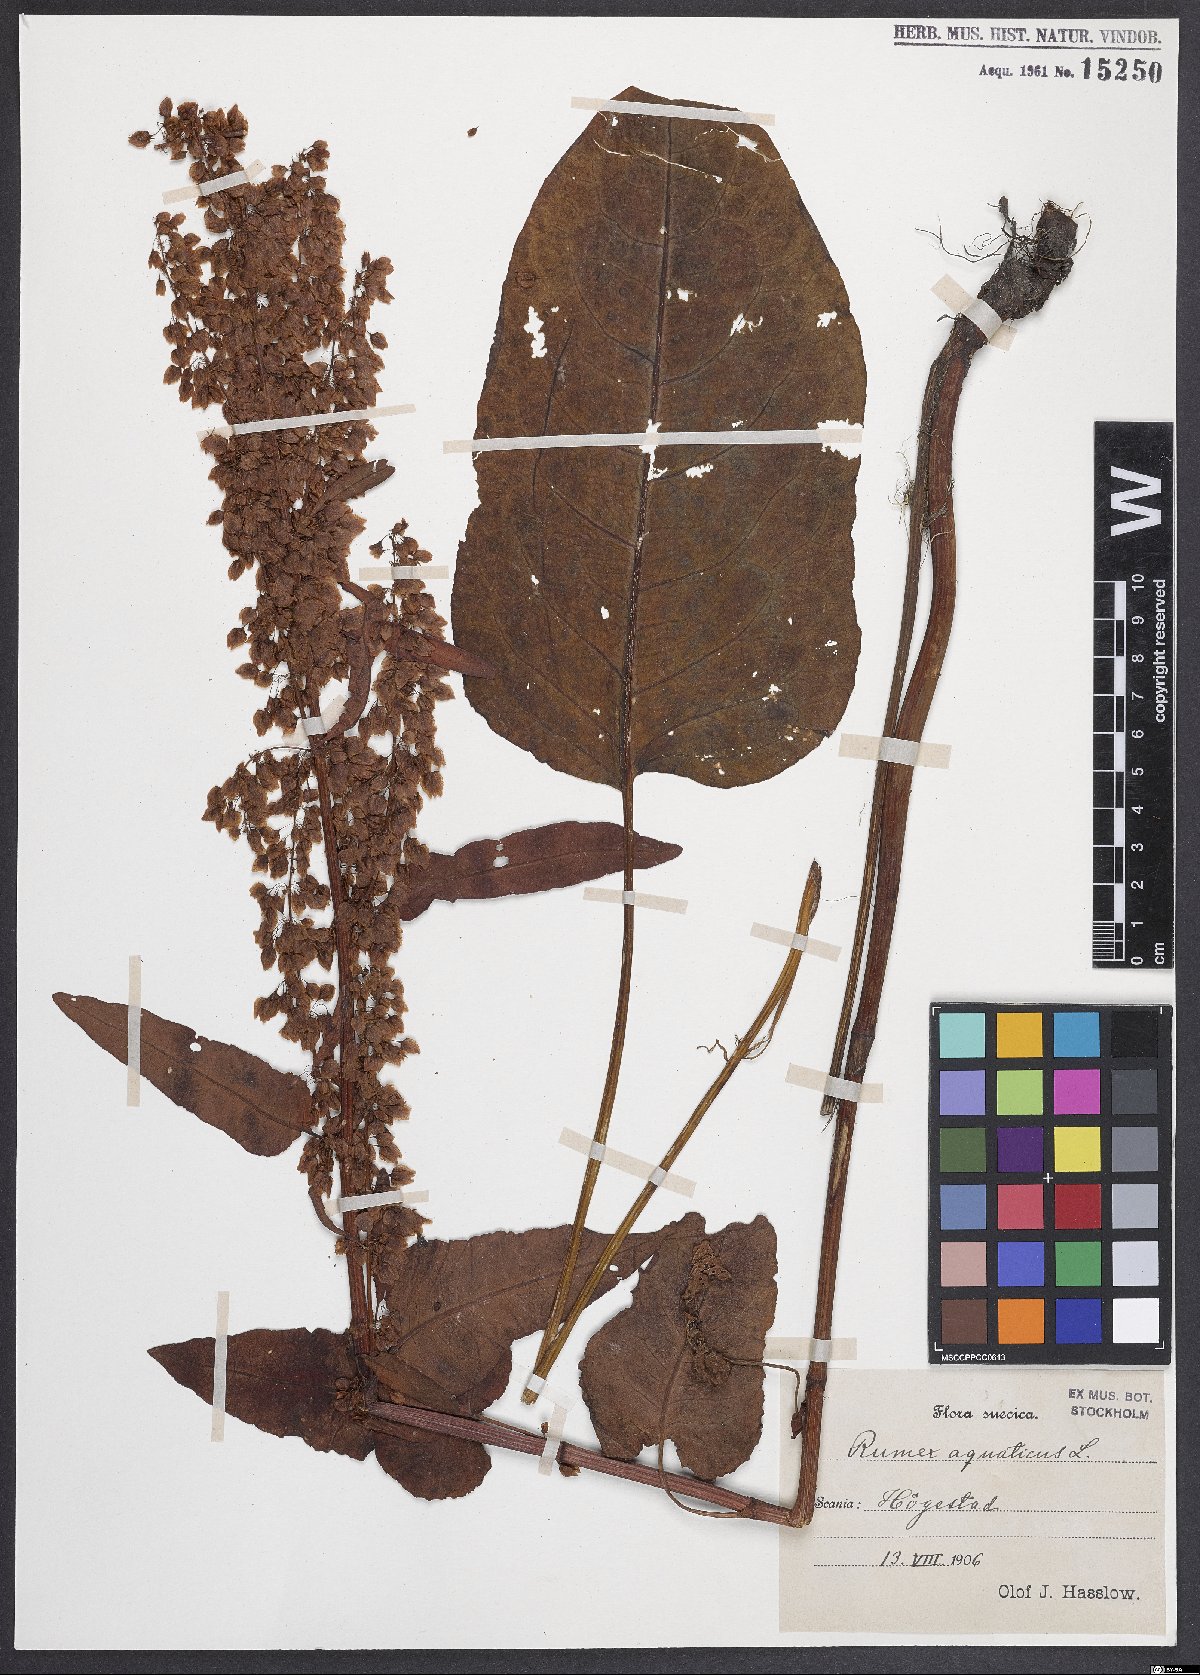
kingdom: Plantae
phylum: Tracheophyta
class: Magnoliopsida
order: Caryophyllales
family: Polygonaceae
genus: Rumex
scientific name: Rumex aquaticus
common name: Scottish dock
